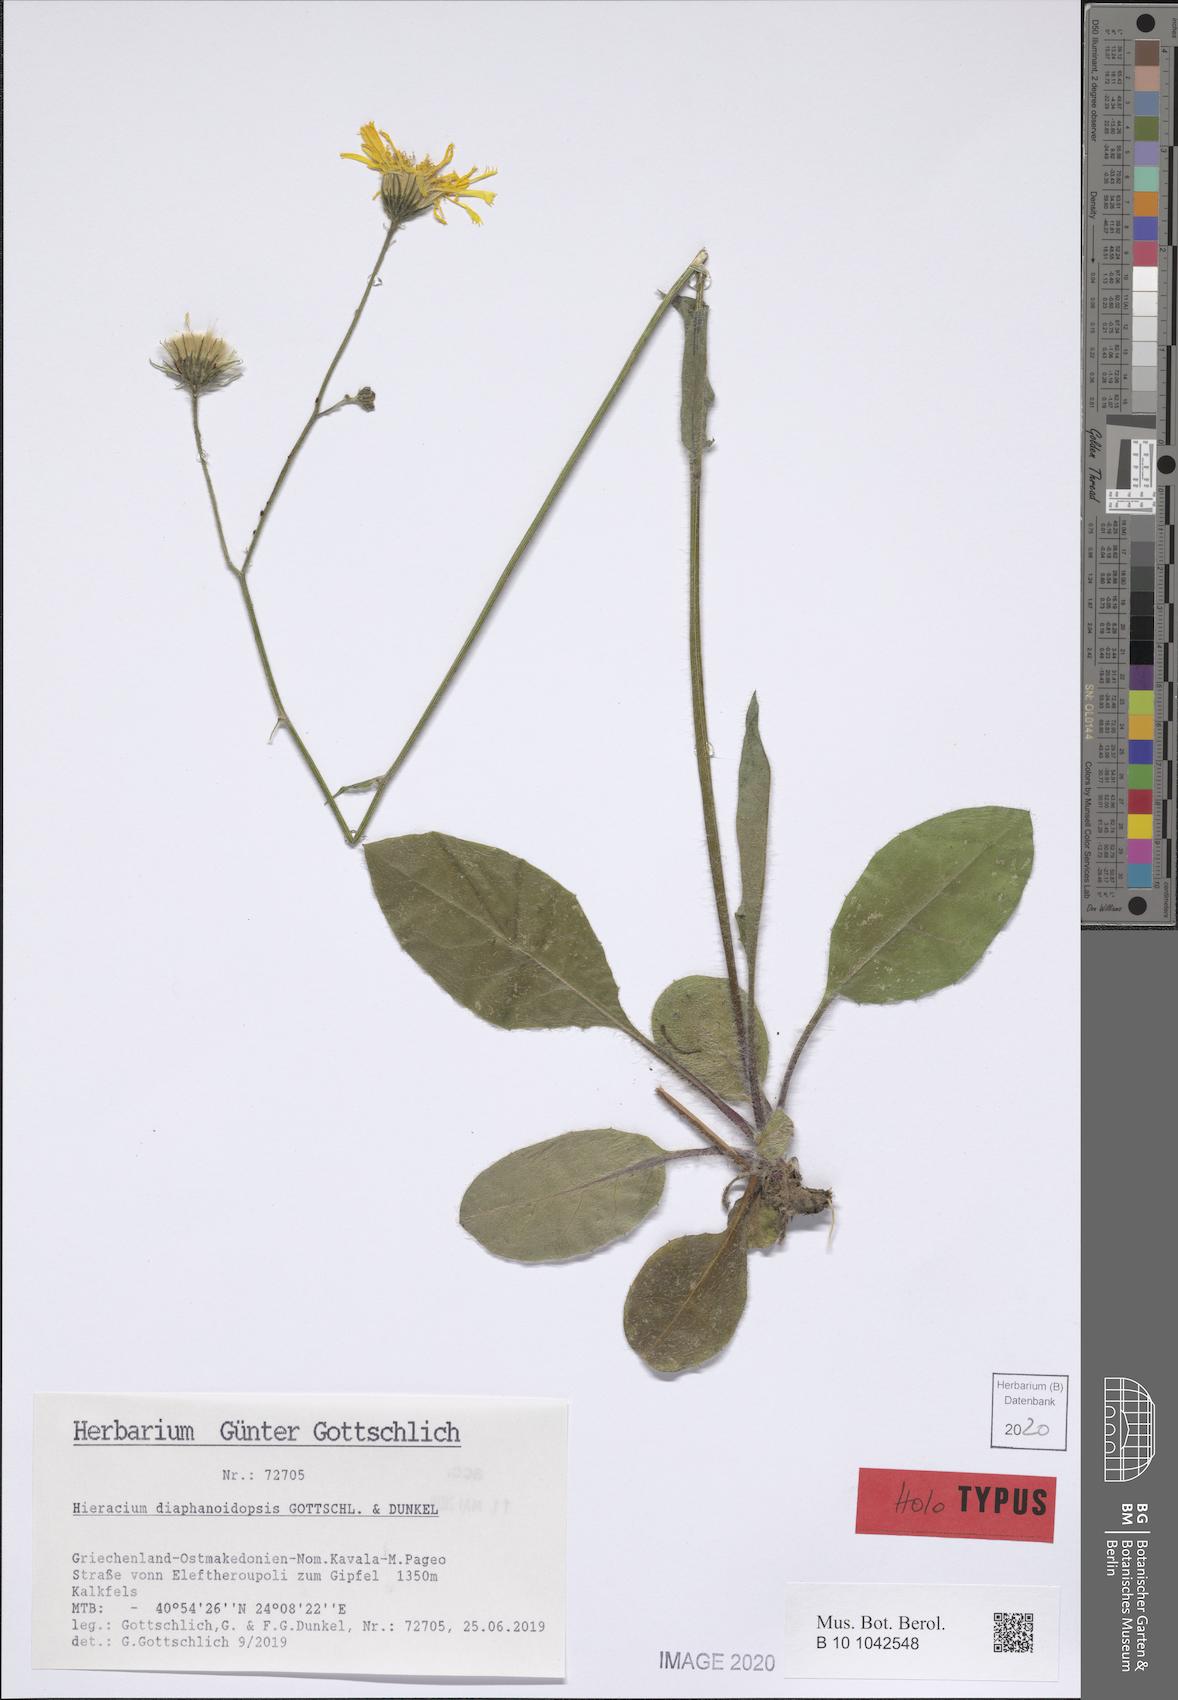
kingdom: Plantae
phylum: Tracheophyta
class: Magnoliopsida
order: Asterales
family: Asteraceae
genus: Hieracium
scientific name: Hieracium diaphanoidopsis
